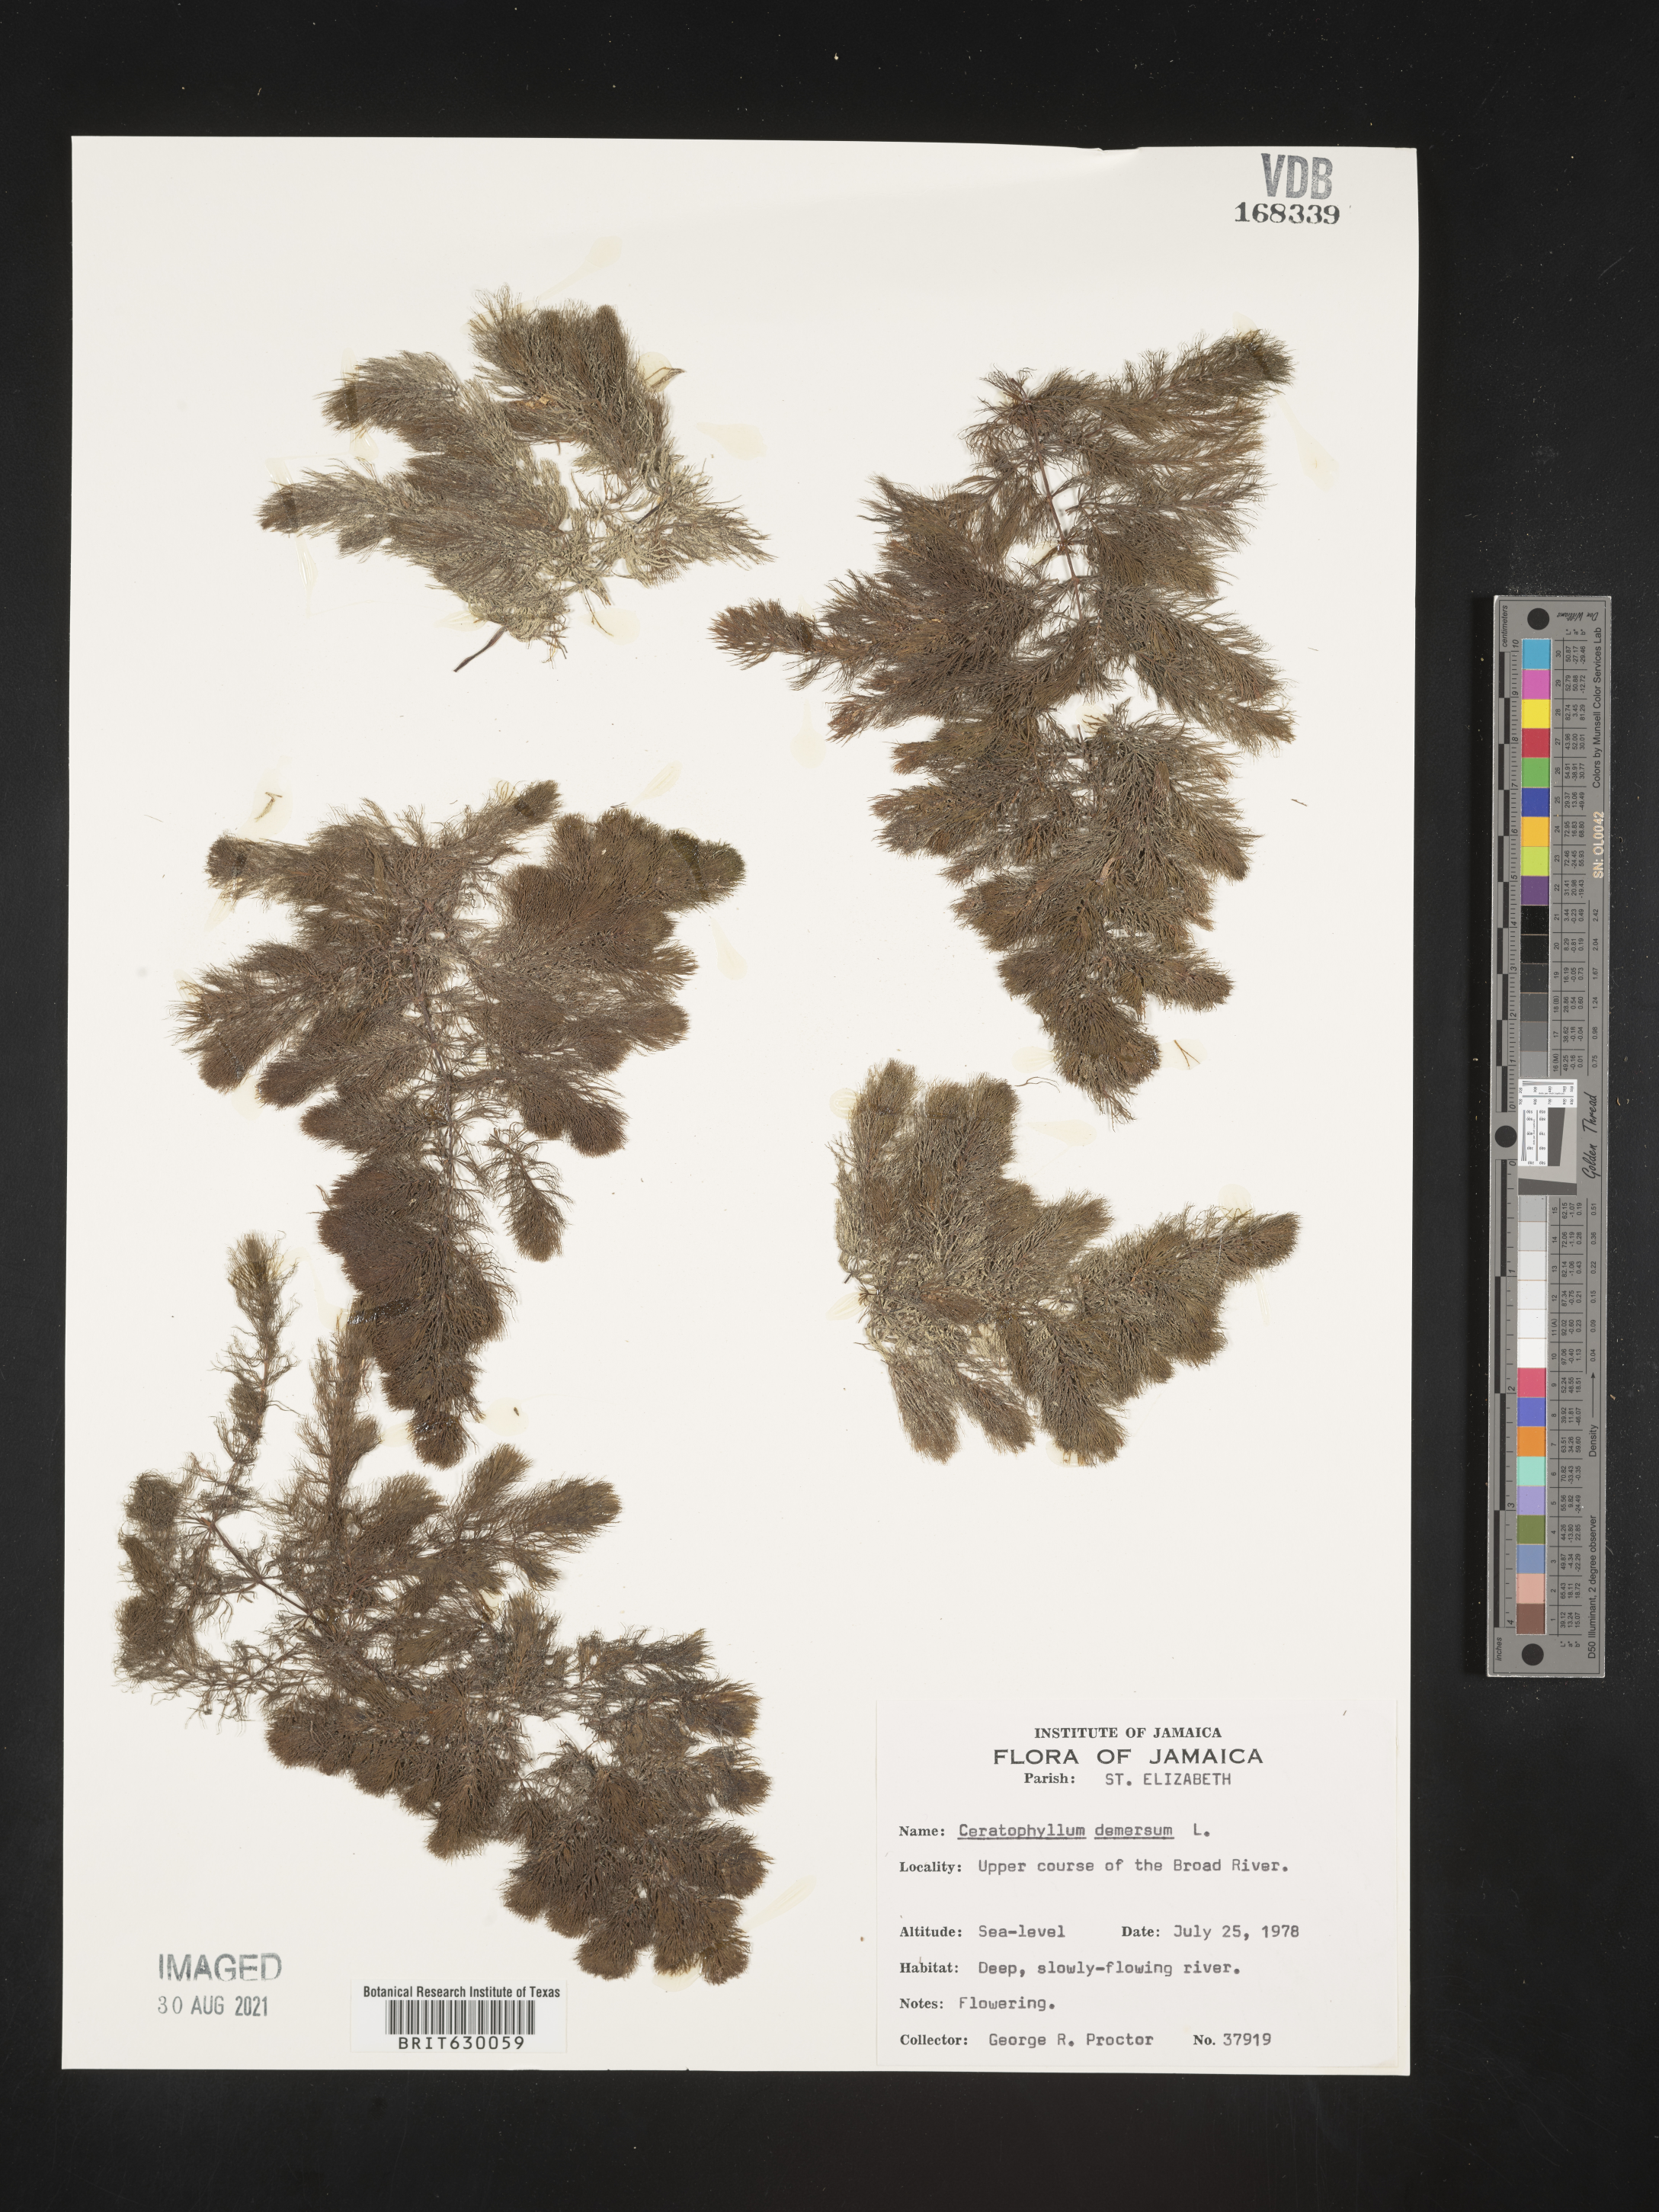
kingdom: Plantae
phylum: Tracheophyta
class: Magnoliopsida
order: Ceratophyllales
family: Ceratophyllaceae
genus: Ceratophyllum
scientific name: Ceratophyllum demersum
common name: Rigid hornwort
